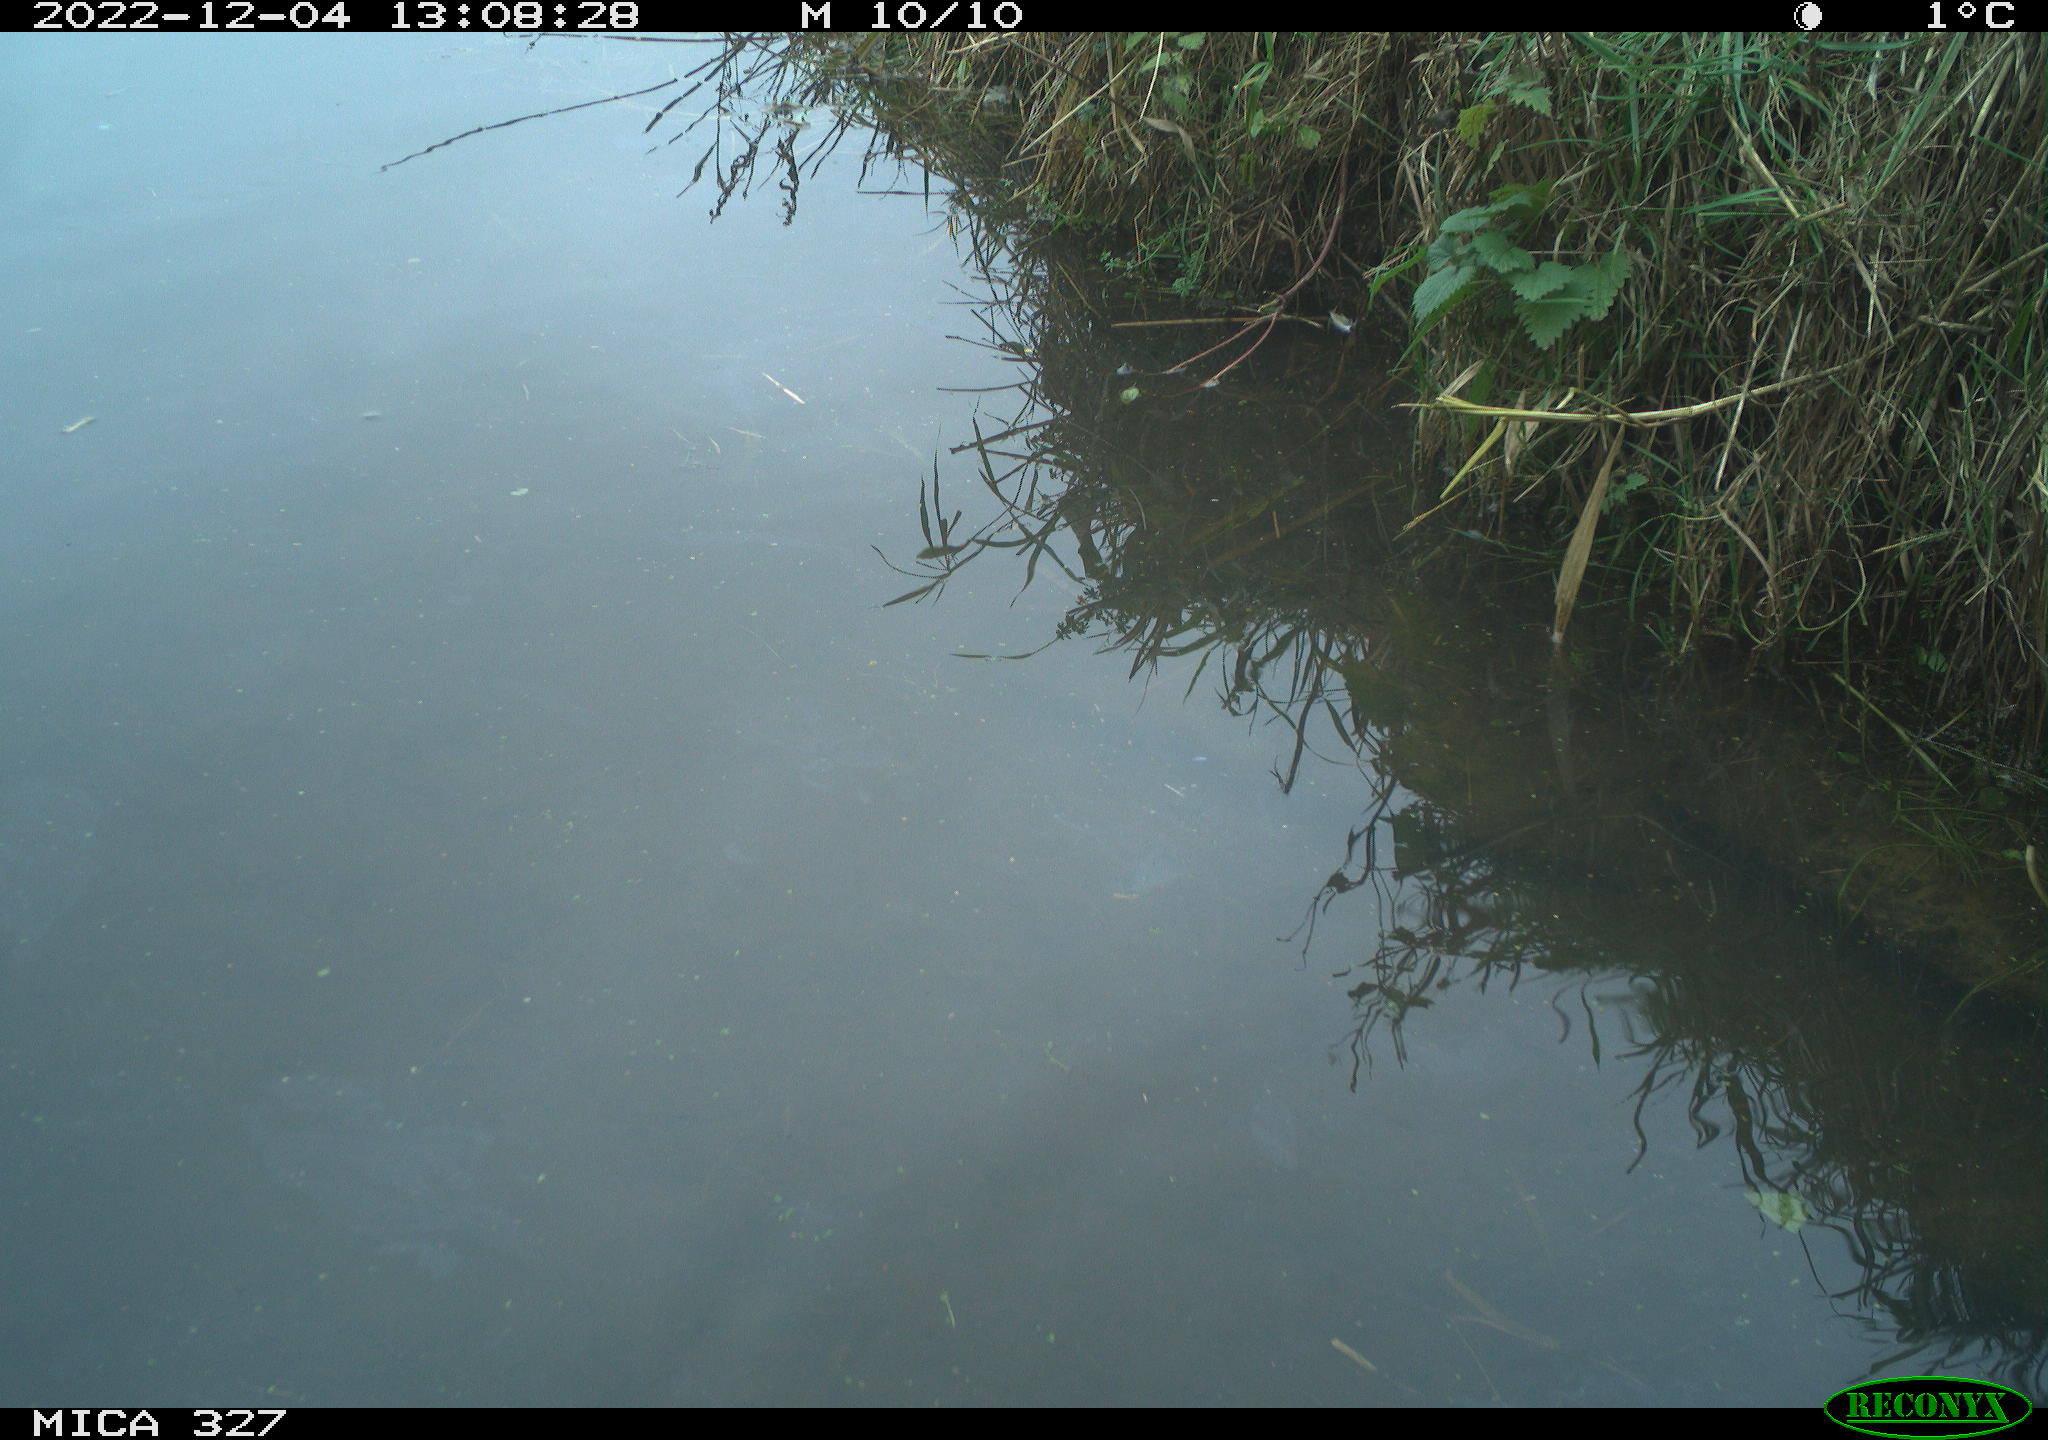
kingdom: Animalia
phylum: Chordata
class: Aves
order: Gruiformes
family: Rallidae
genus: Gallinula
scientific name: Gallinula chloropus
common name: Common moorhen
